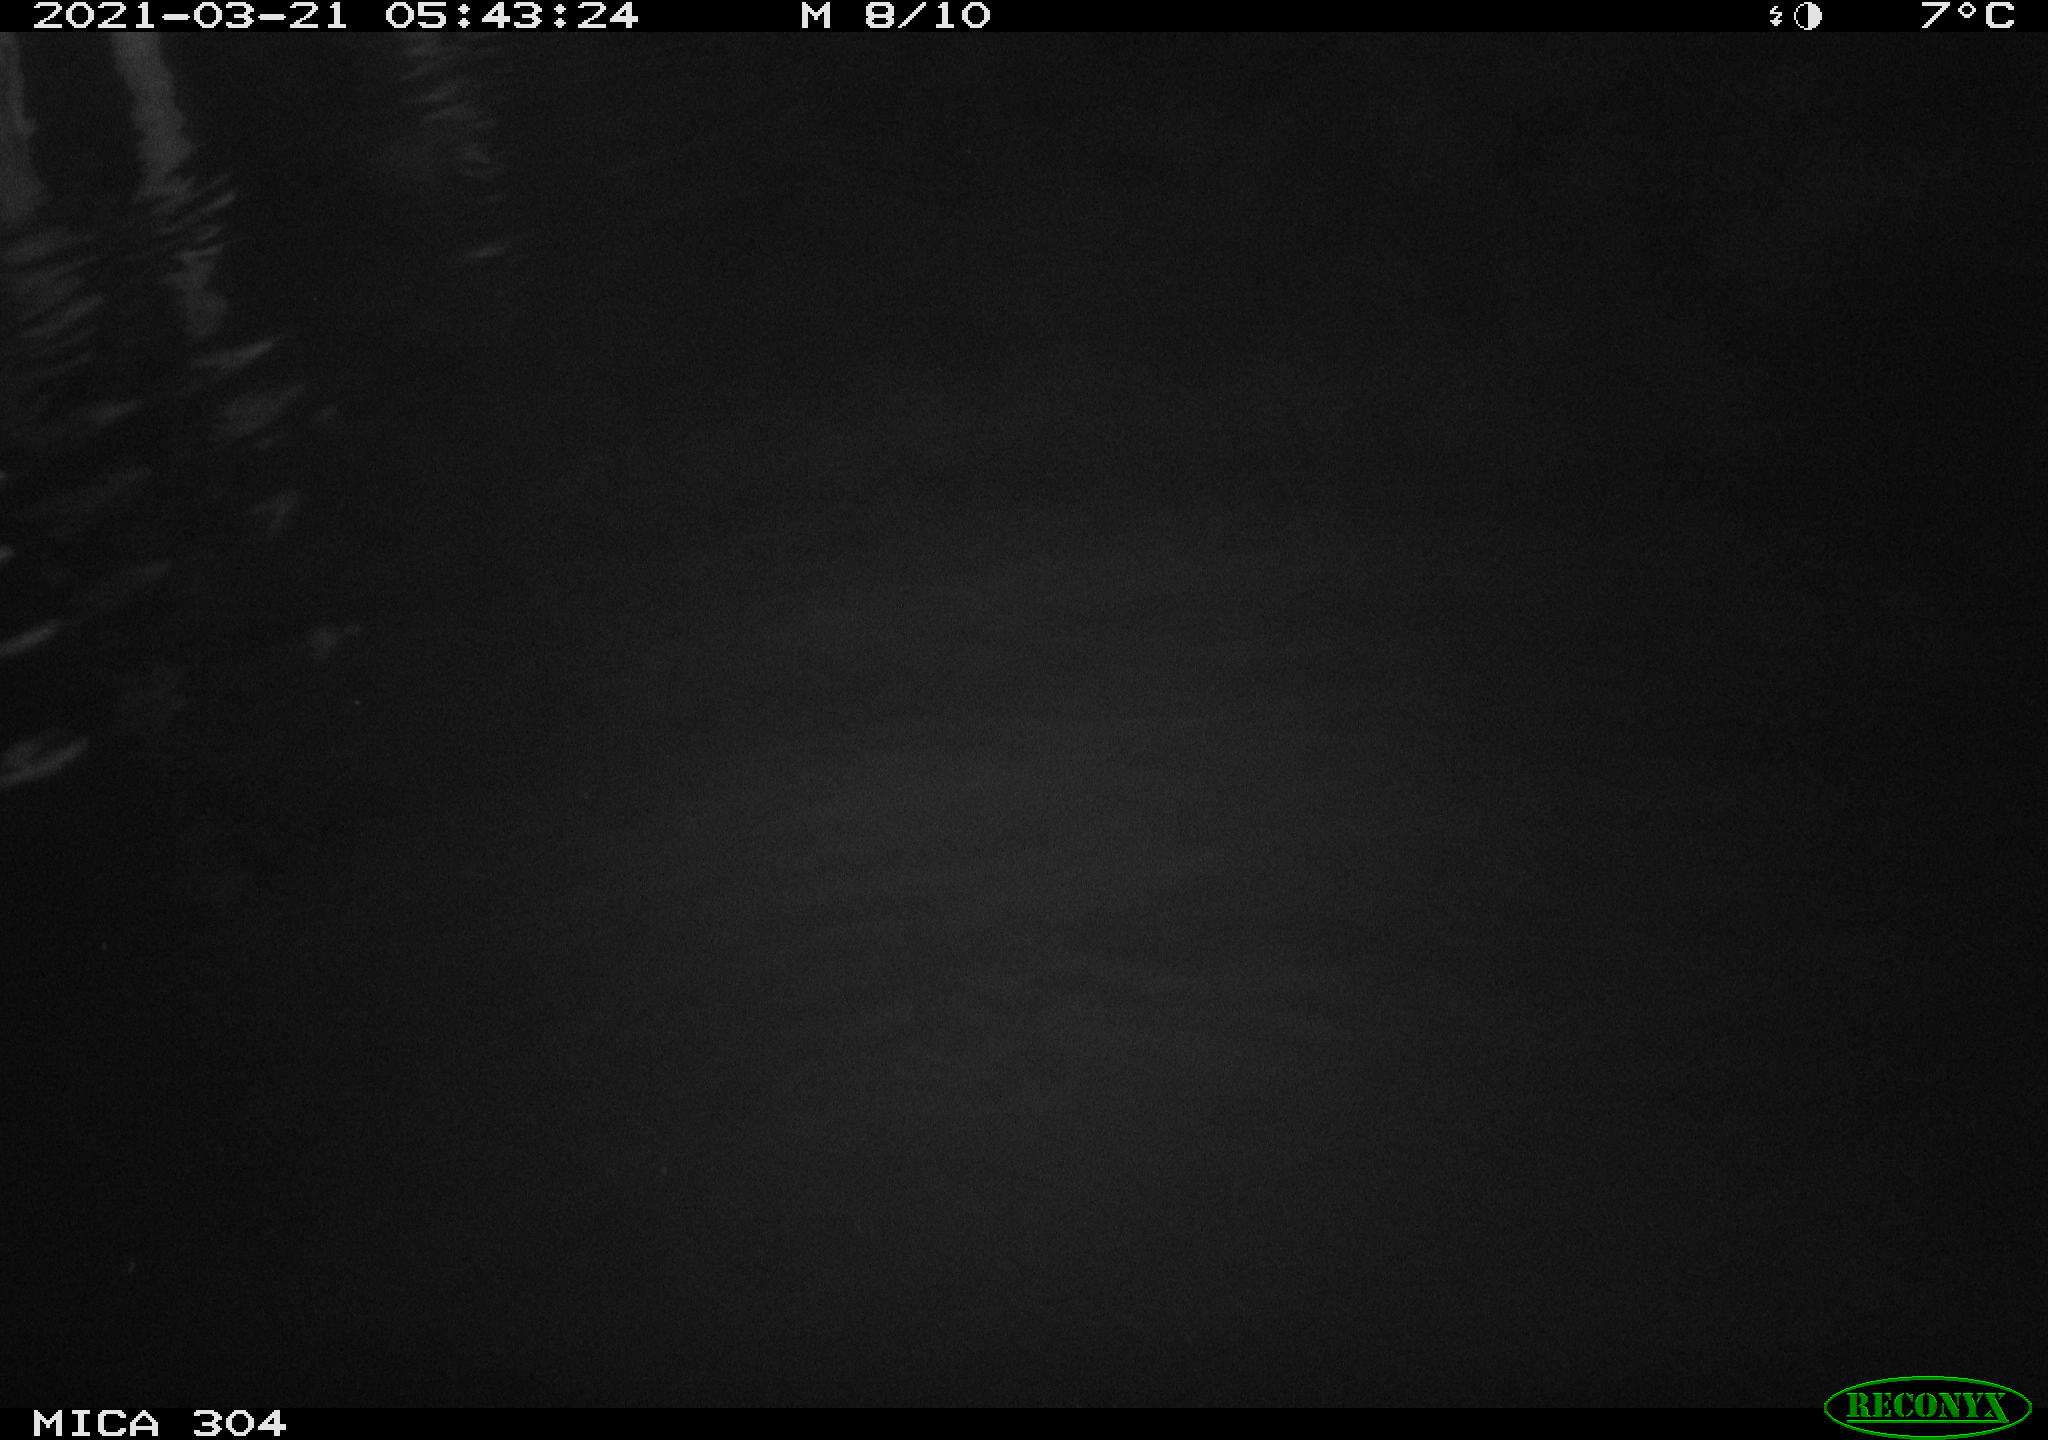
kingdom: Animalia
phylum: Chordata
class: Aves
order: Anseriformes
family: Anatidae
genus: Anas
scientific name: Anas platyrhynchos
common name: Mallard
